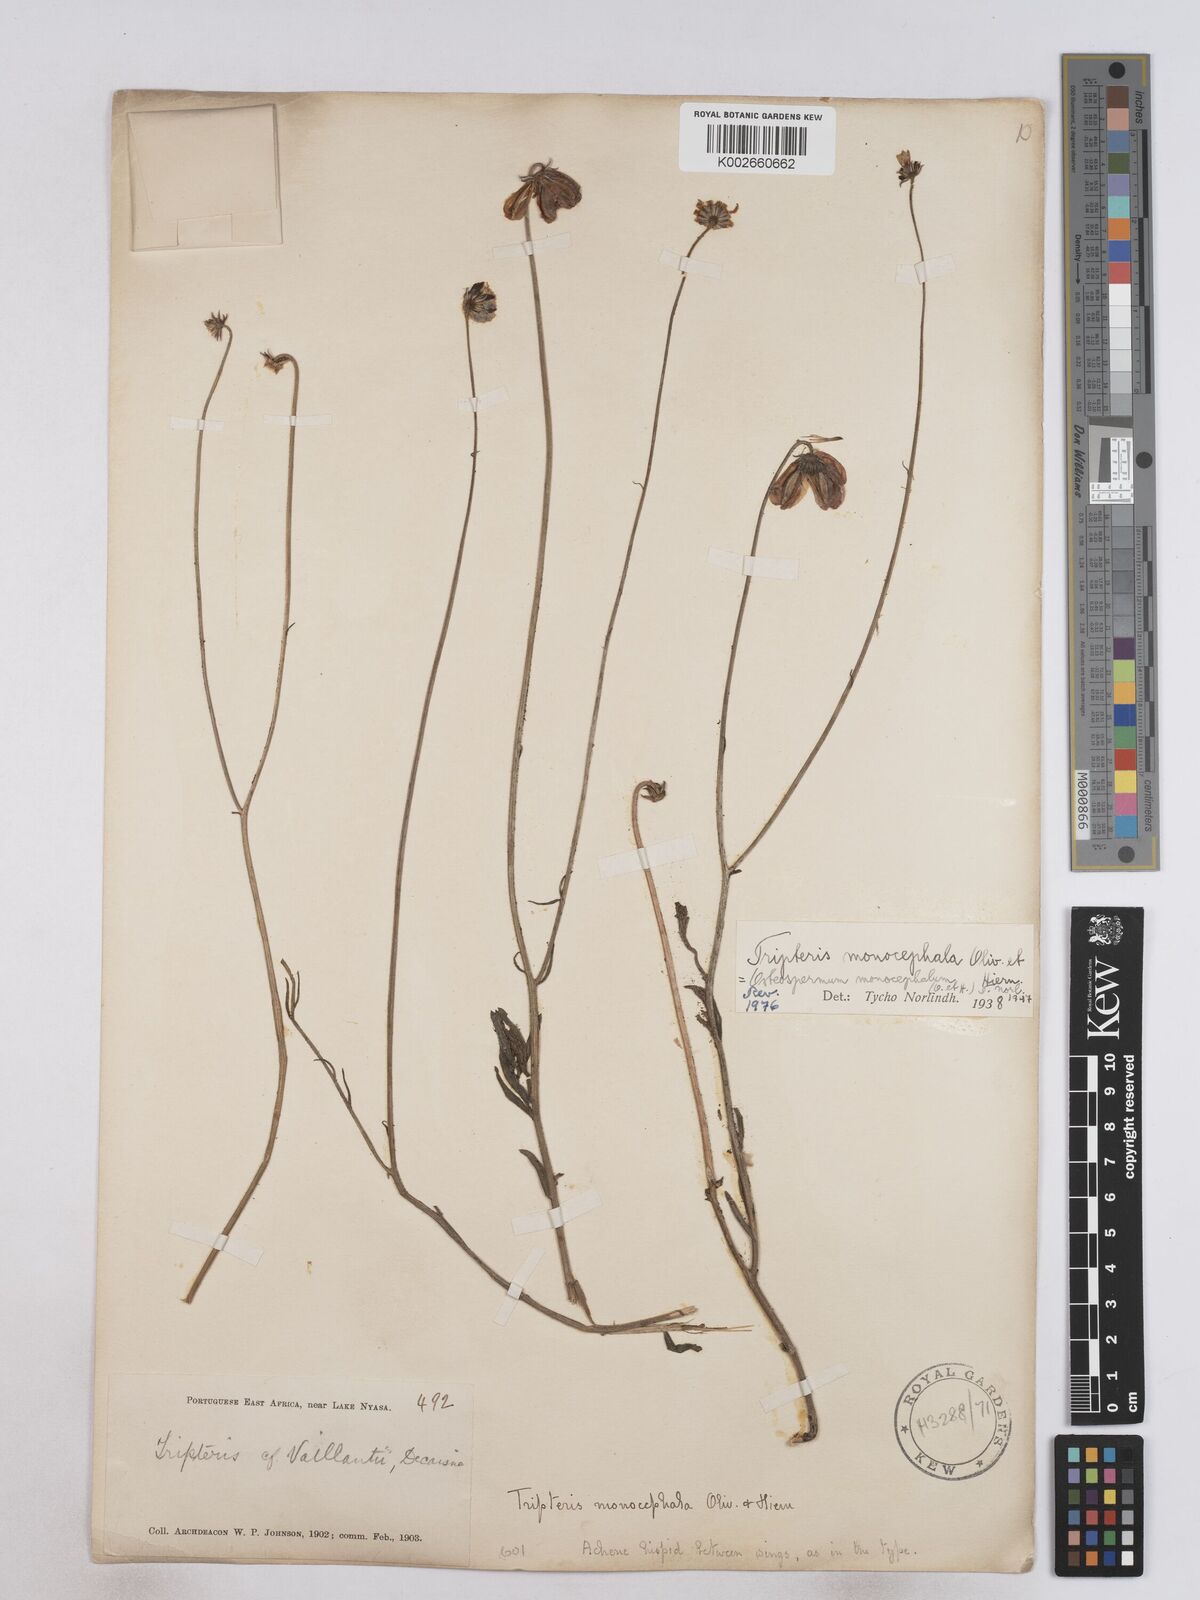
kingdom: Plantae
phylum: Tracheophyta
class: Magnoliopsida
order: Asterales
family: Asteraceae
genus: Osteospermum
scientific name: Osteospermum monocephalum
